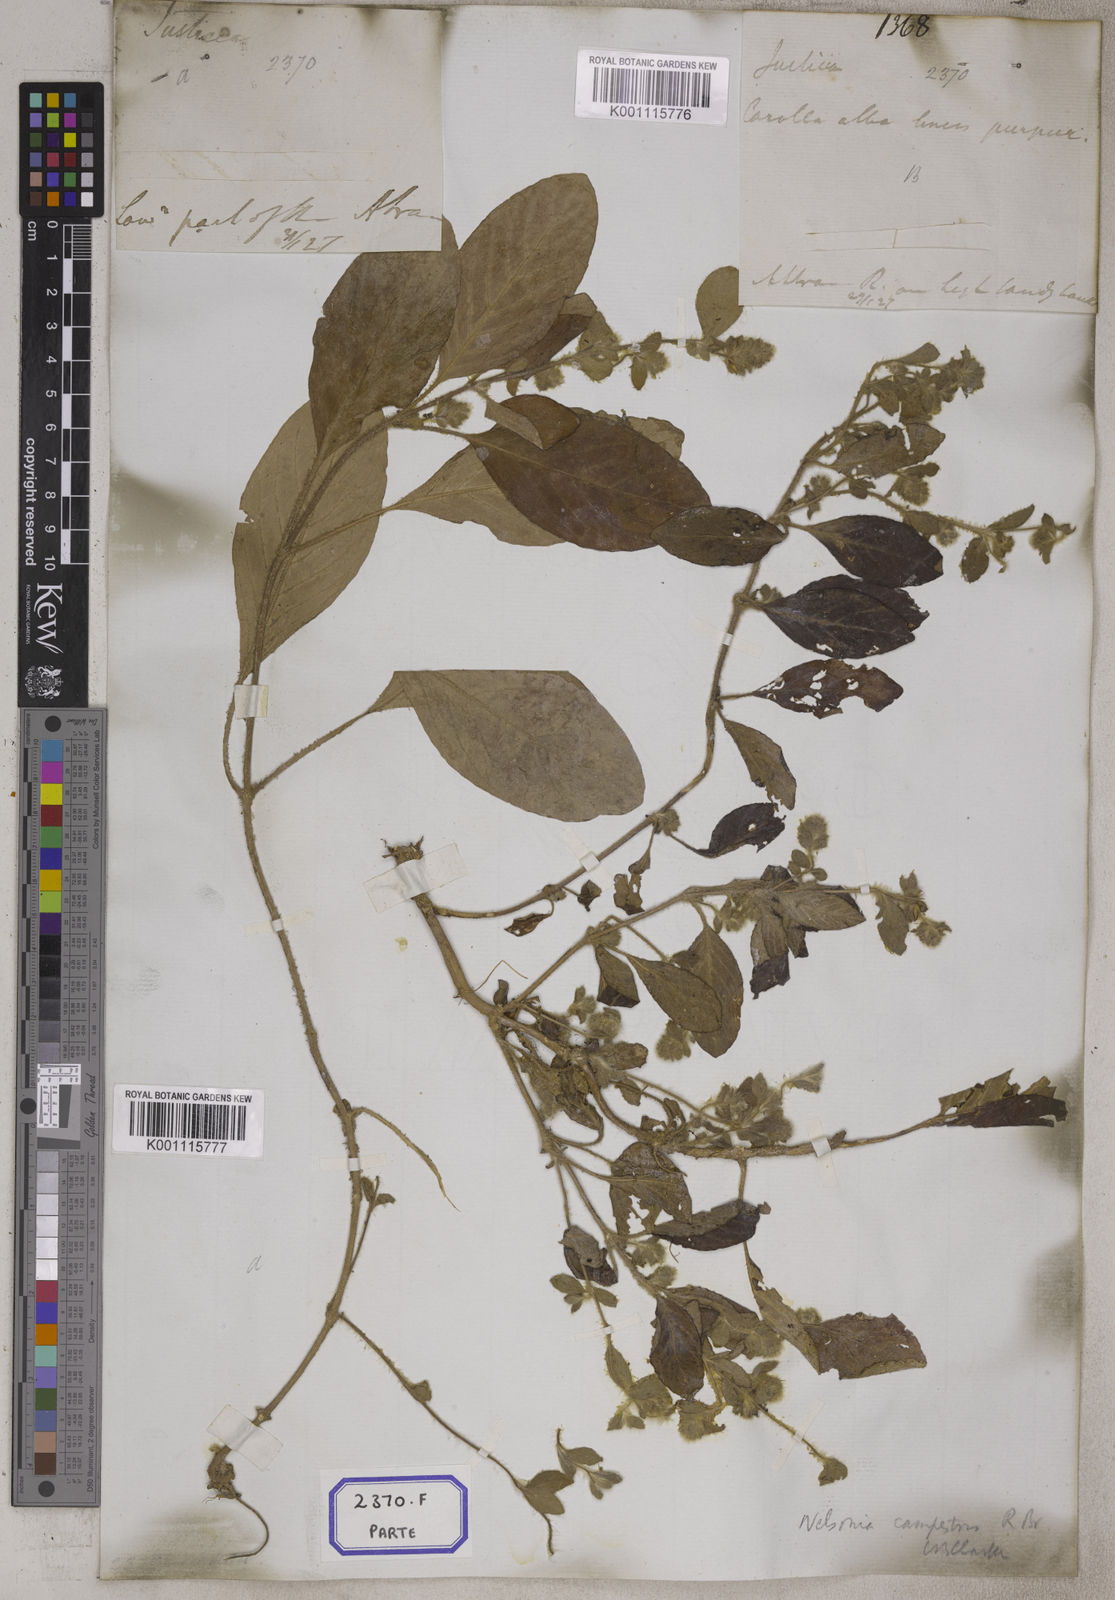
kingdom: Plantae
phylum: Tracheophyta
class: Magnoliopsida
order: Lamiales
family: Acanthaceae
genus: Nelsonia
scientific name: Nelsonia canescens
